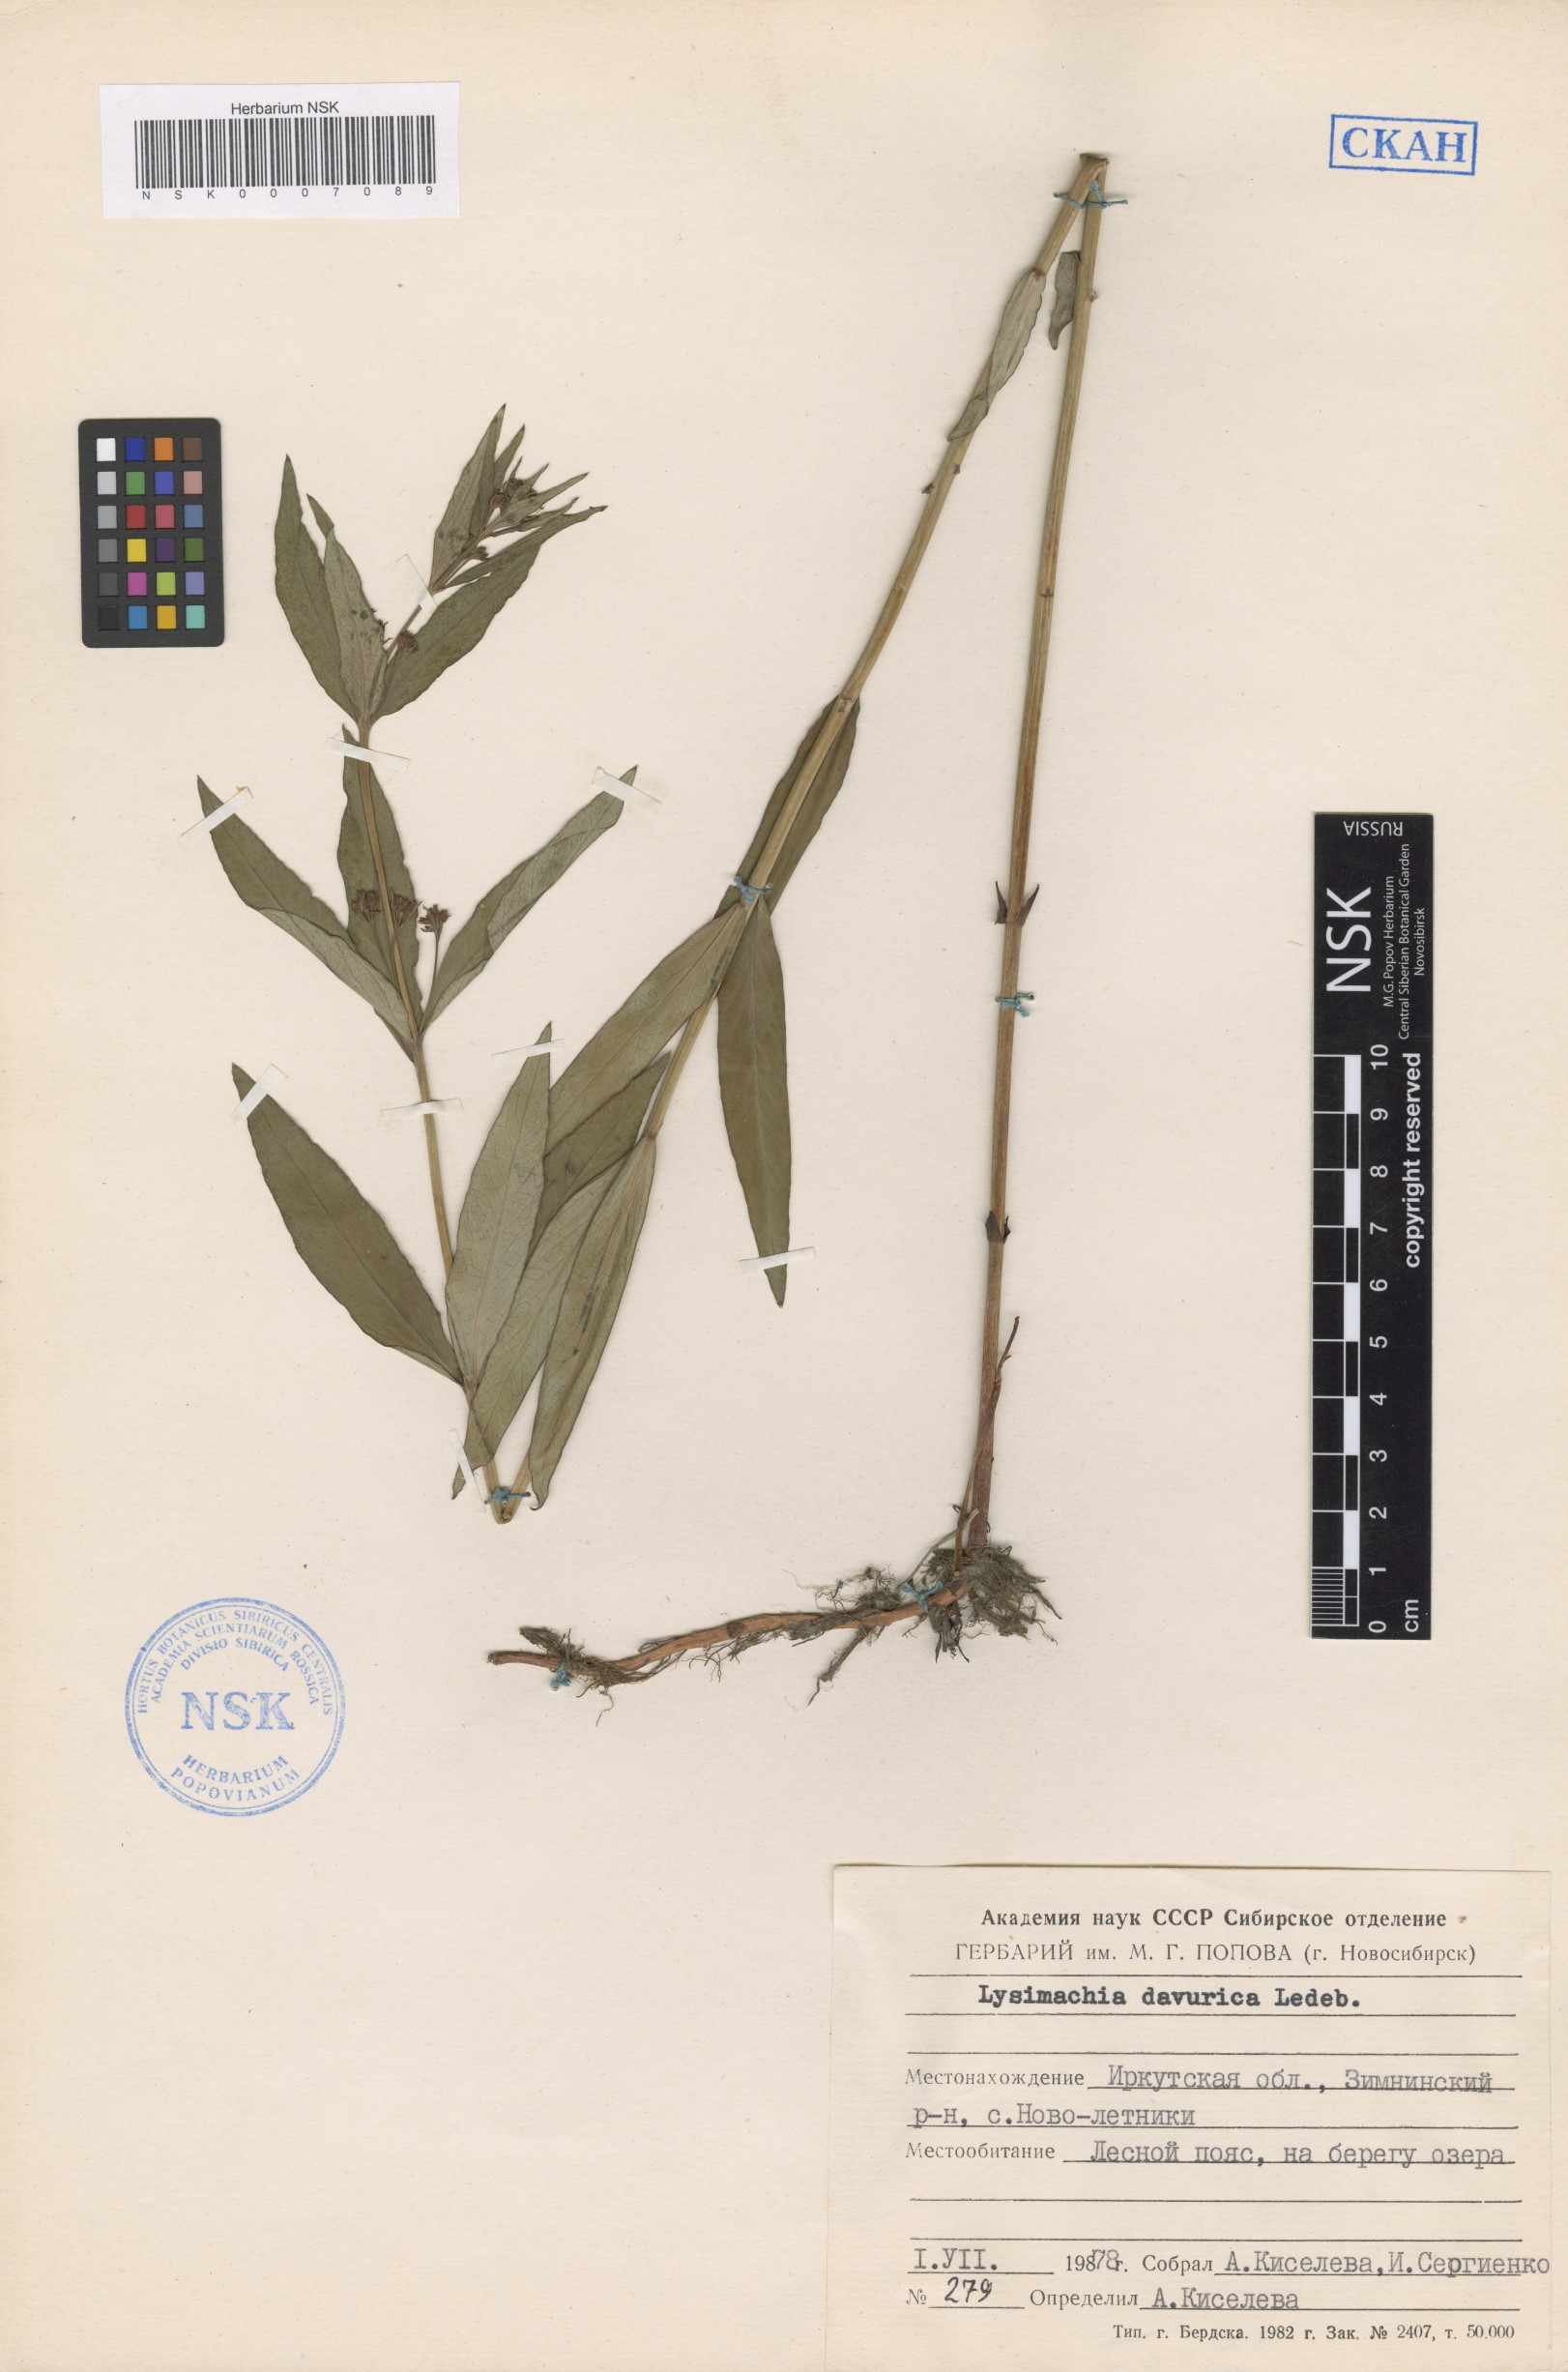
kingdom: Plantae
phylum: Tracheophyta
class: Magnoliopsida
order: Ericales
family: Primulaceae
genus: Lysimachia
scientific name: Lysimachia davurica
